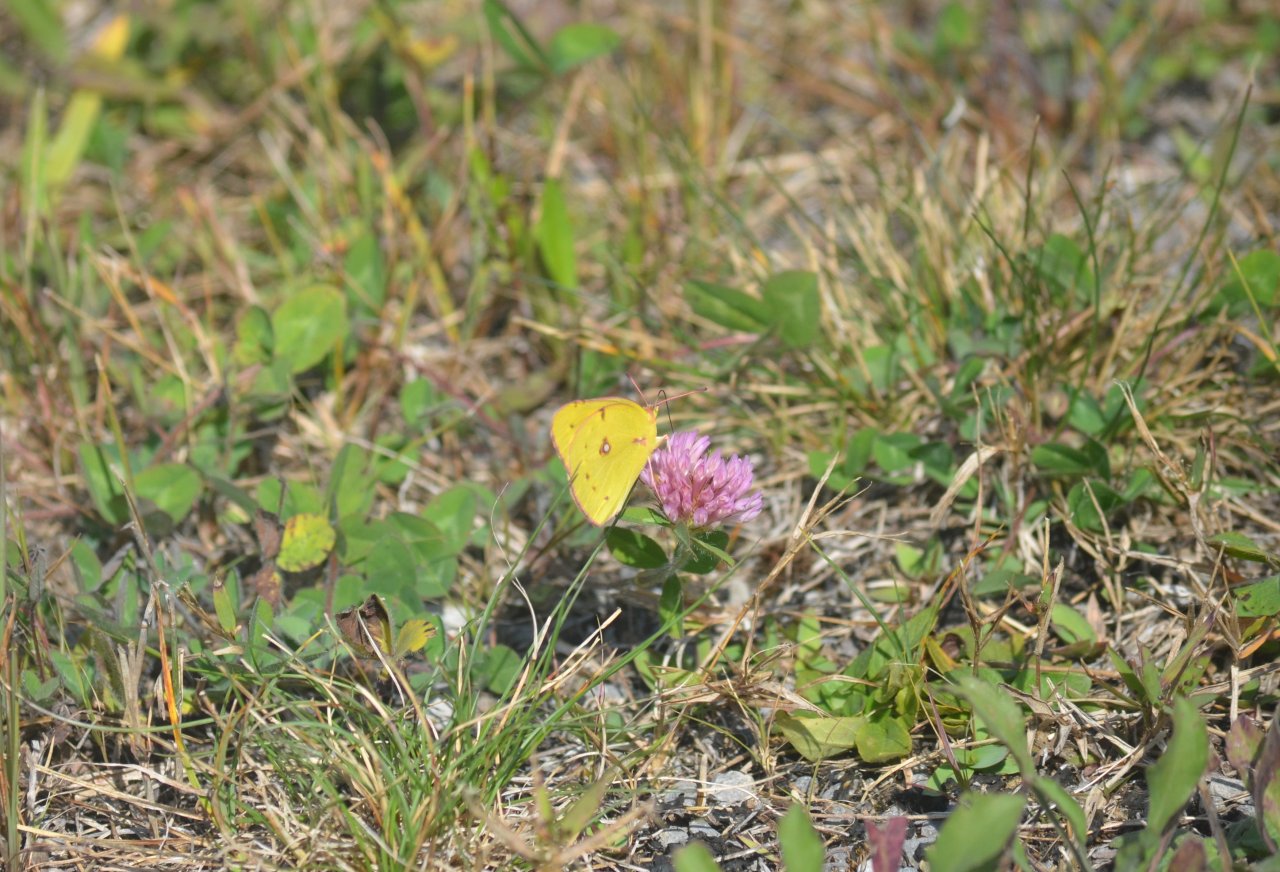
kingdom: Animalia
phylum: Arthropoda
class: Insecta
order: Lepidoptera
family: Pieridae
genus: Colias
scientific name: Colias eurytheme
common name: Orange Sulphur
